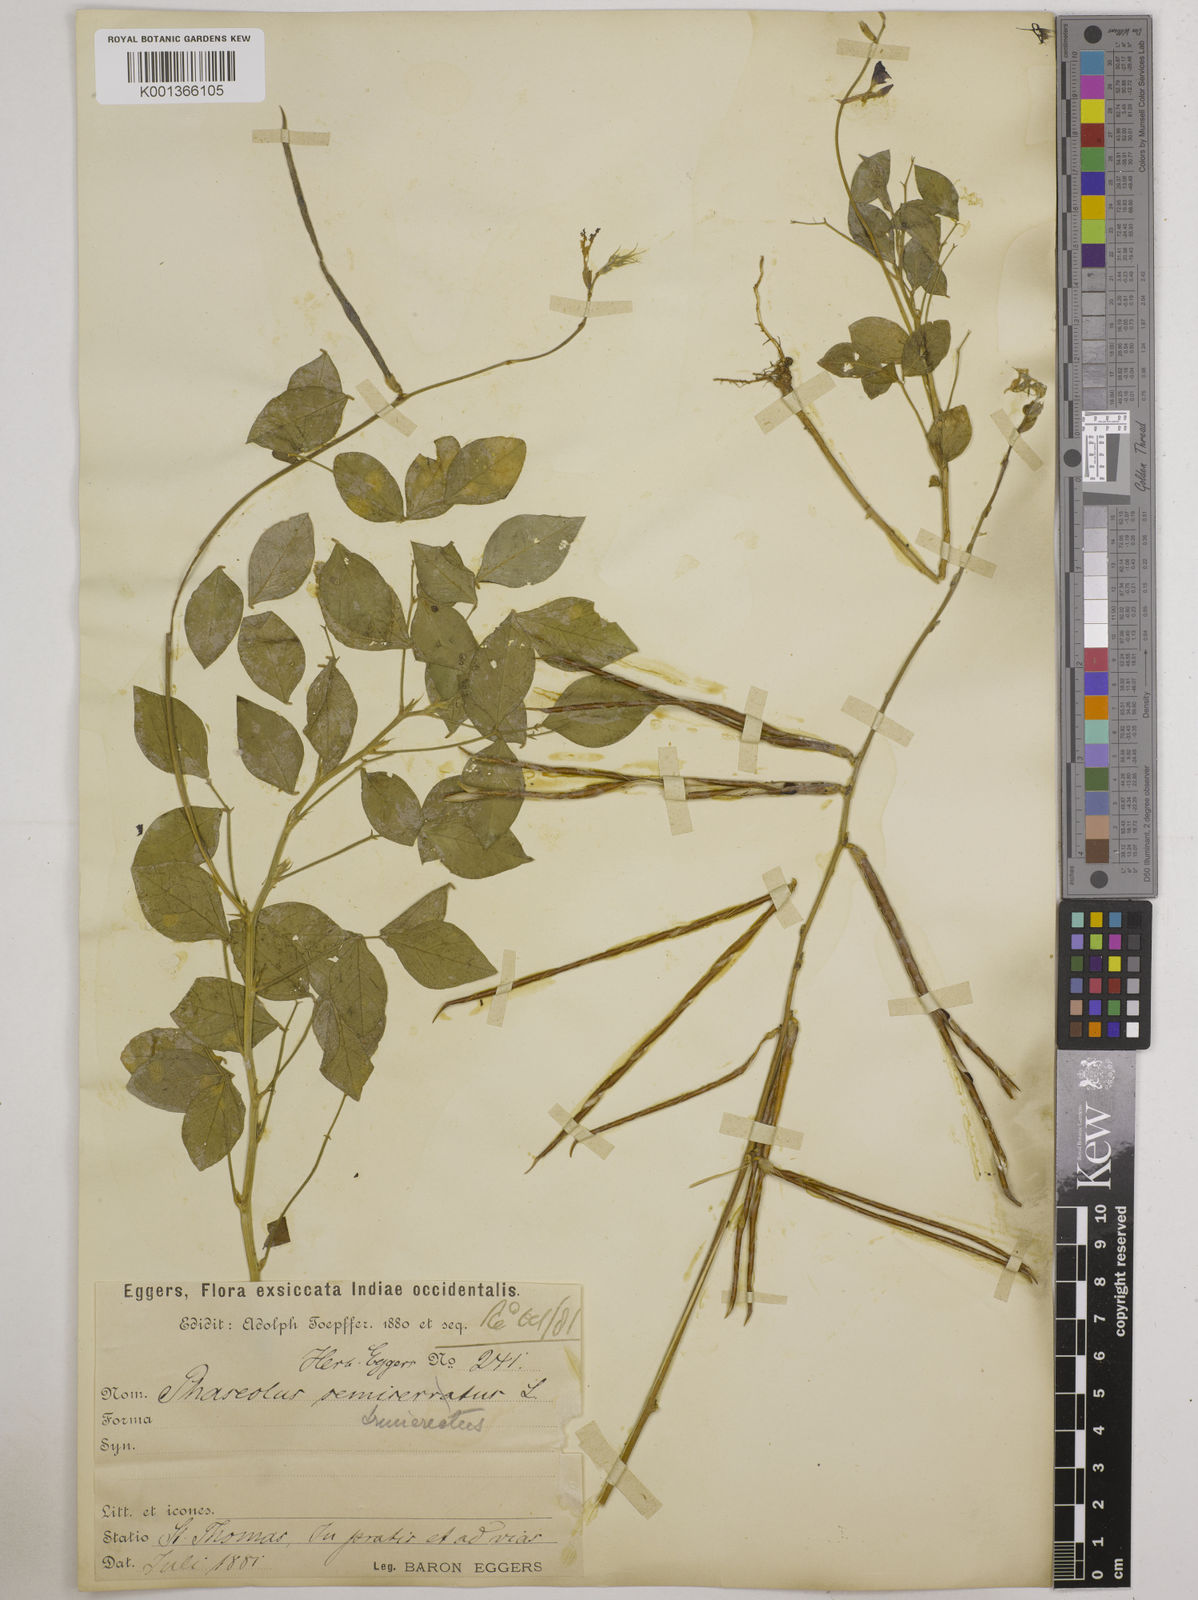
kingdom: Plantae
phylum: Tracheophyta
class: Magnoliopsida
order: Fabales
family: Fabaceae
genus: Macroptilium
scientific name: Macroptilium lathyroides
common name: Wild bushbean
